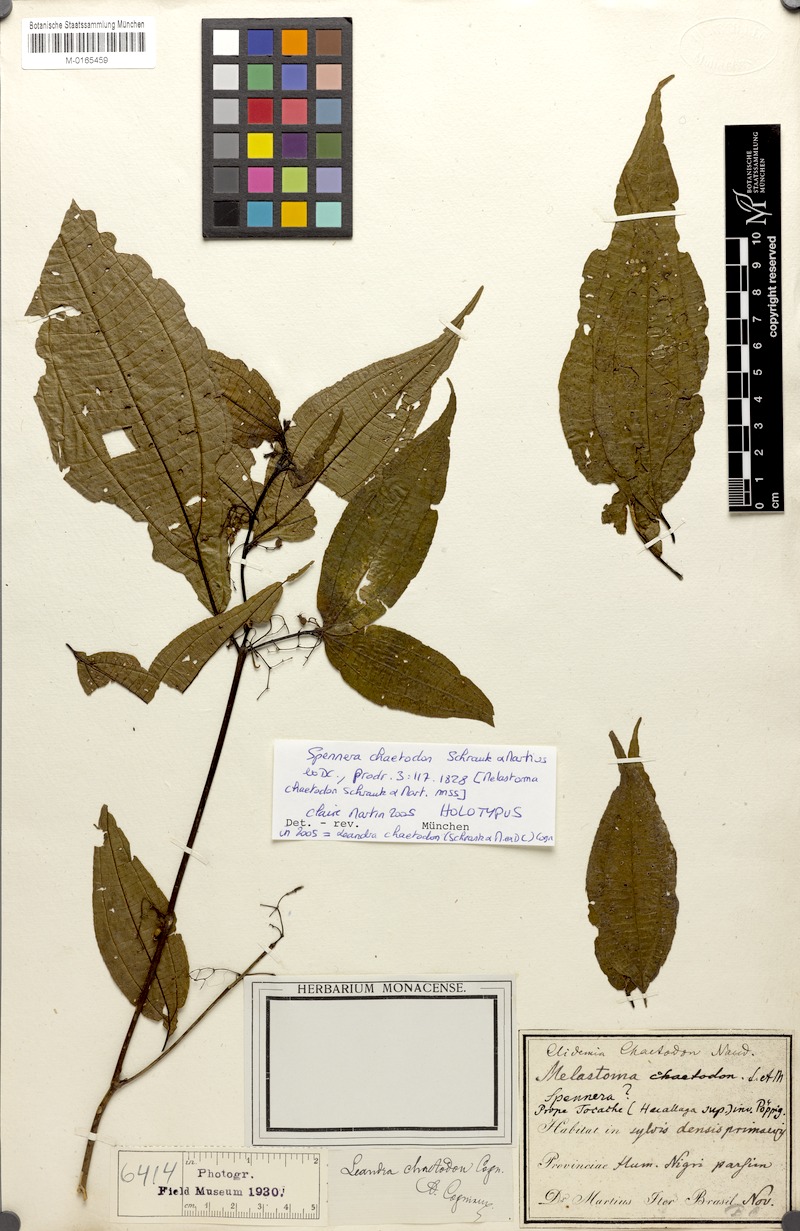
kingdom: Plantae
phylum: Tracheophyta
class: Magnoliopsida
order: Myrtales
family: Melastomataceae
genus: Miconia
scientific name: Miconia chaetodonta
